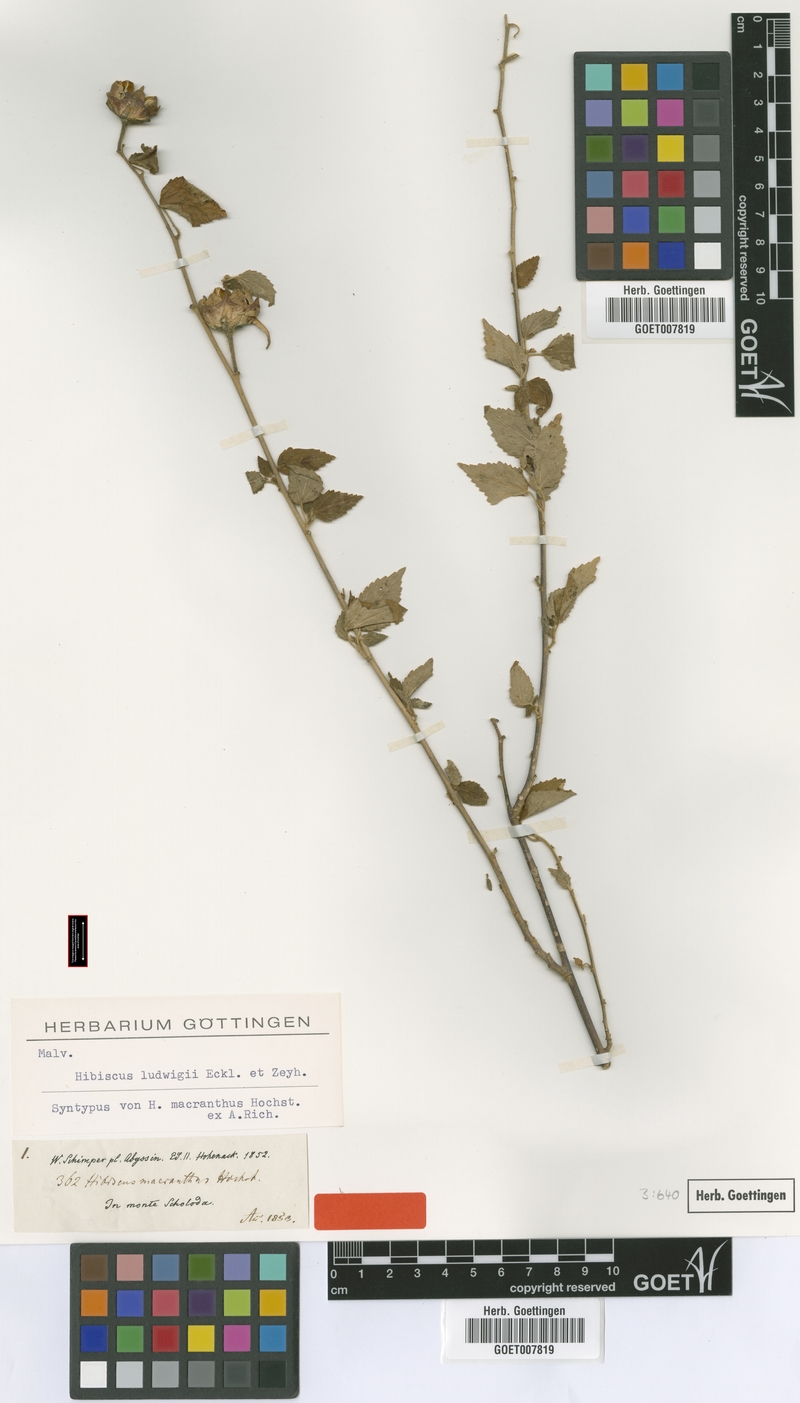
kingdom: Plantae
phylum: Tracheophyta
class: Magnoliopsida
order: Malvales
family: Malvaceae
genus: Hibiscus
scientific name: Hibiscus ludwigii
